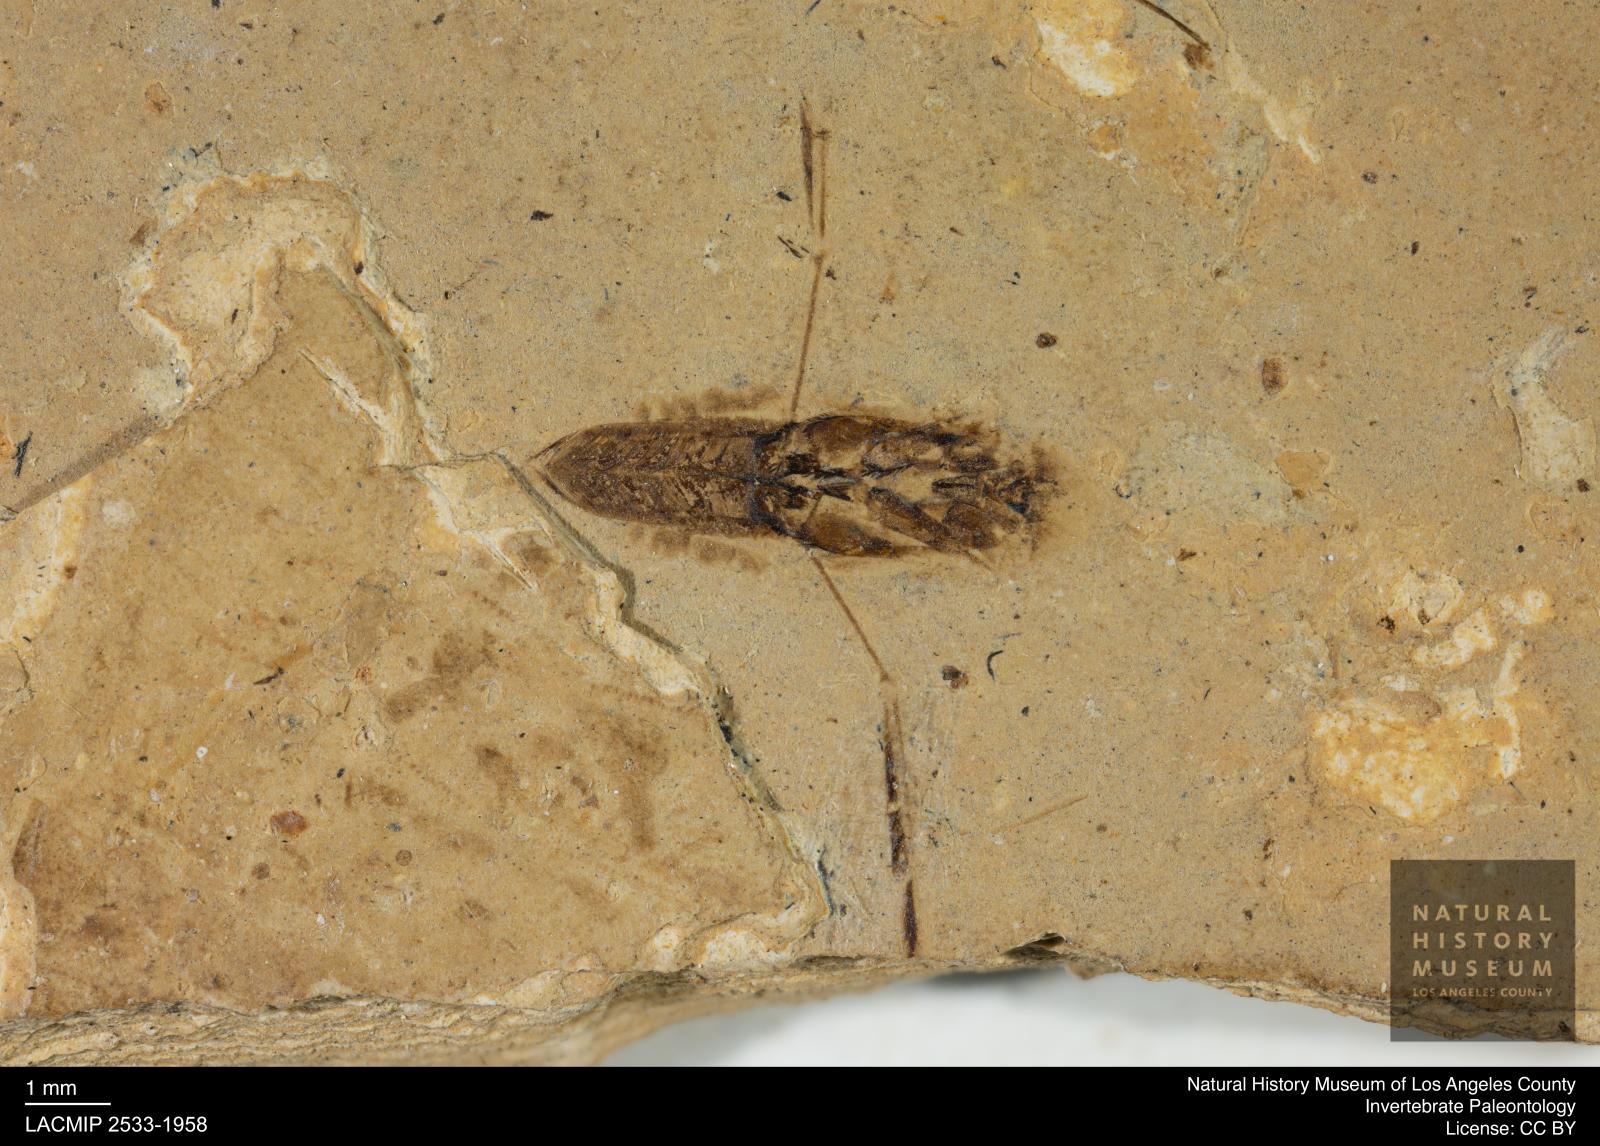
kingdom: Animalia
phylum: Arthropoda
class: Insecta
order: Hemiptera
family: Notonectidae
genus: Anisops
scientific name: Anisops Notonecta deichmuelleri
